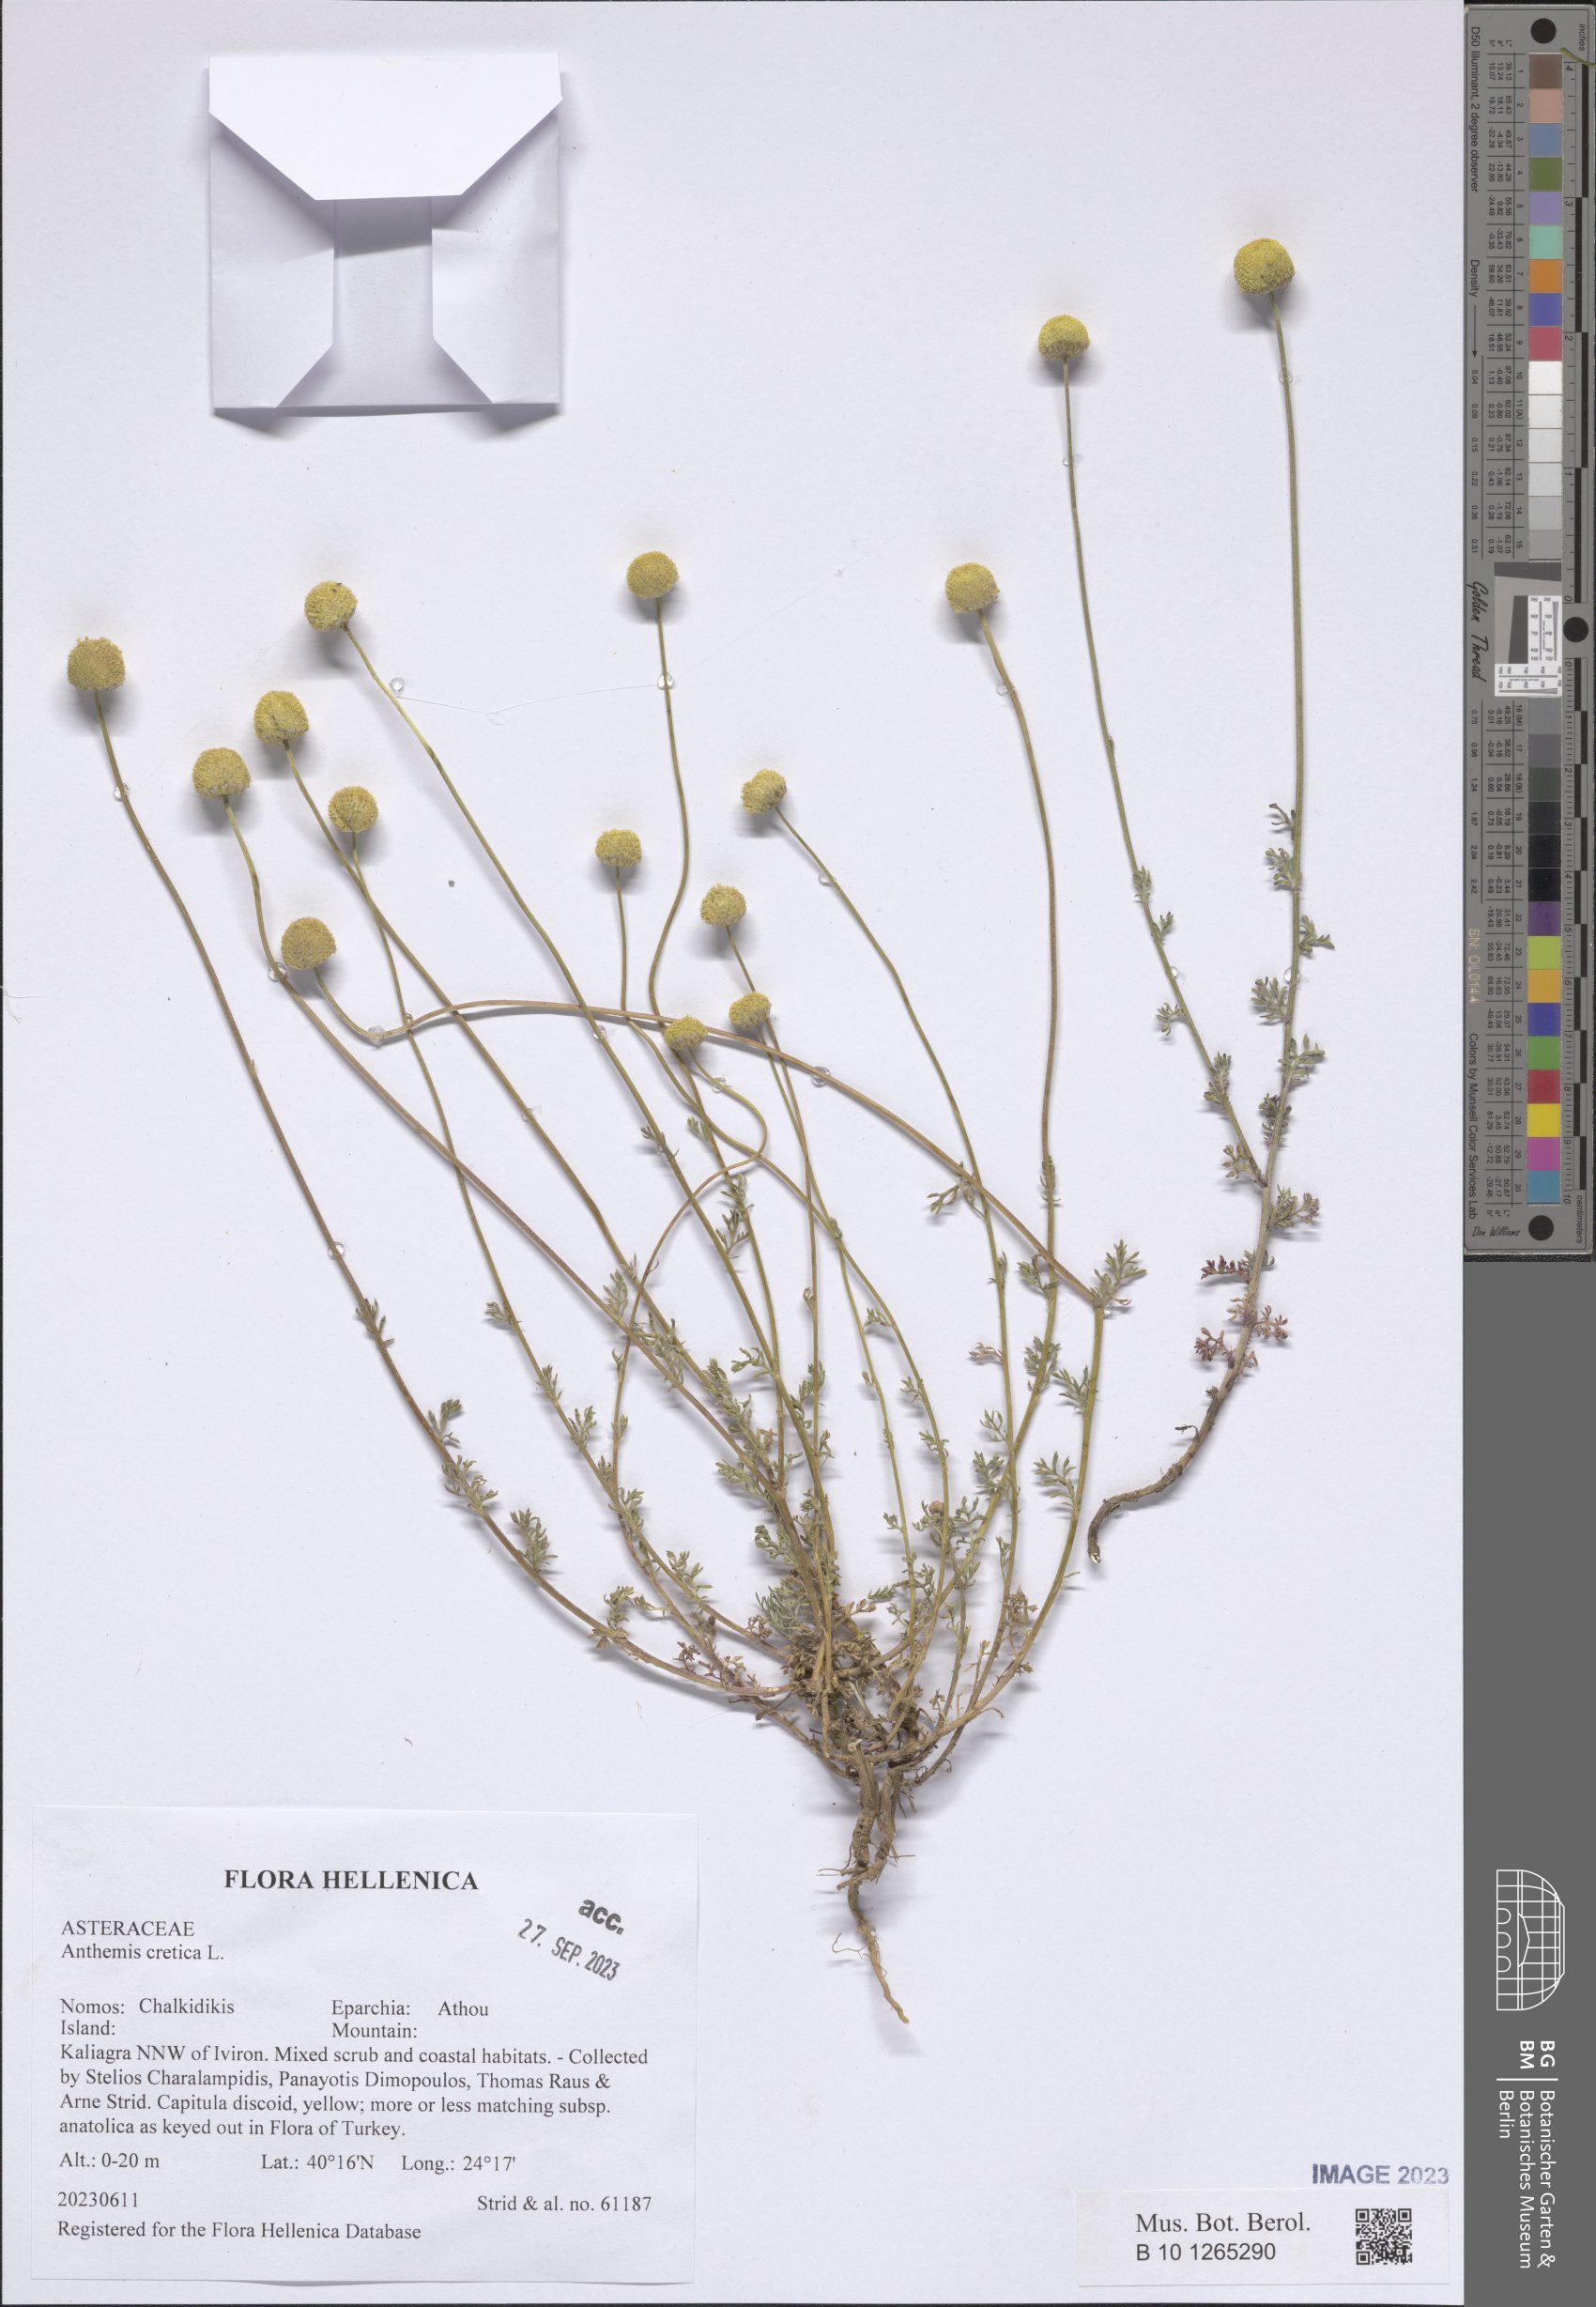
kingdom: Plantae
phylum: Tracheophyta
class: Magnoliopsida
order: Asterales
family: Asteraceae
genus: Anthemis
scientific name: Anthemis cretica
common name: Mountain dog-daisy
